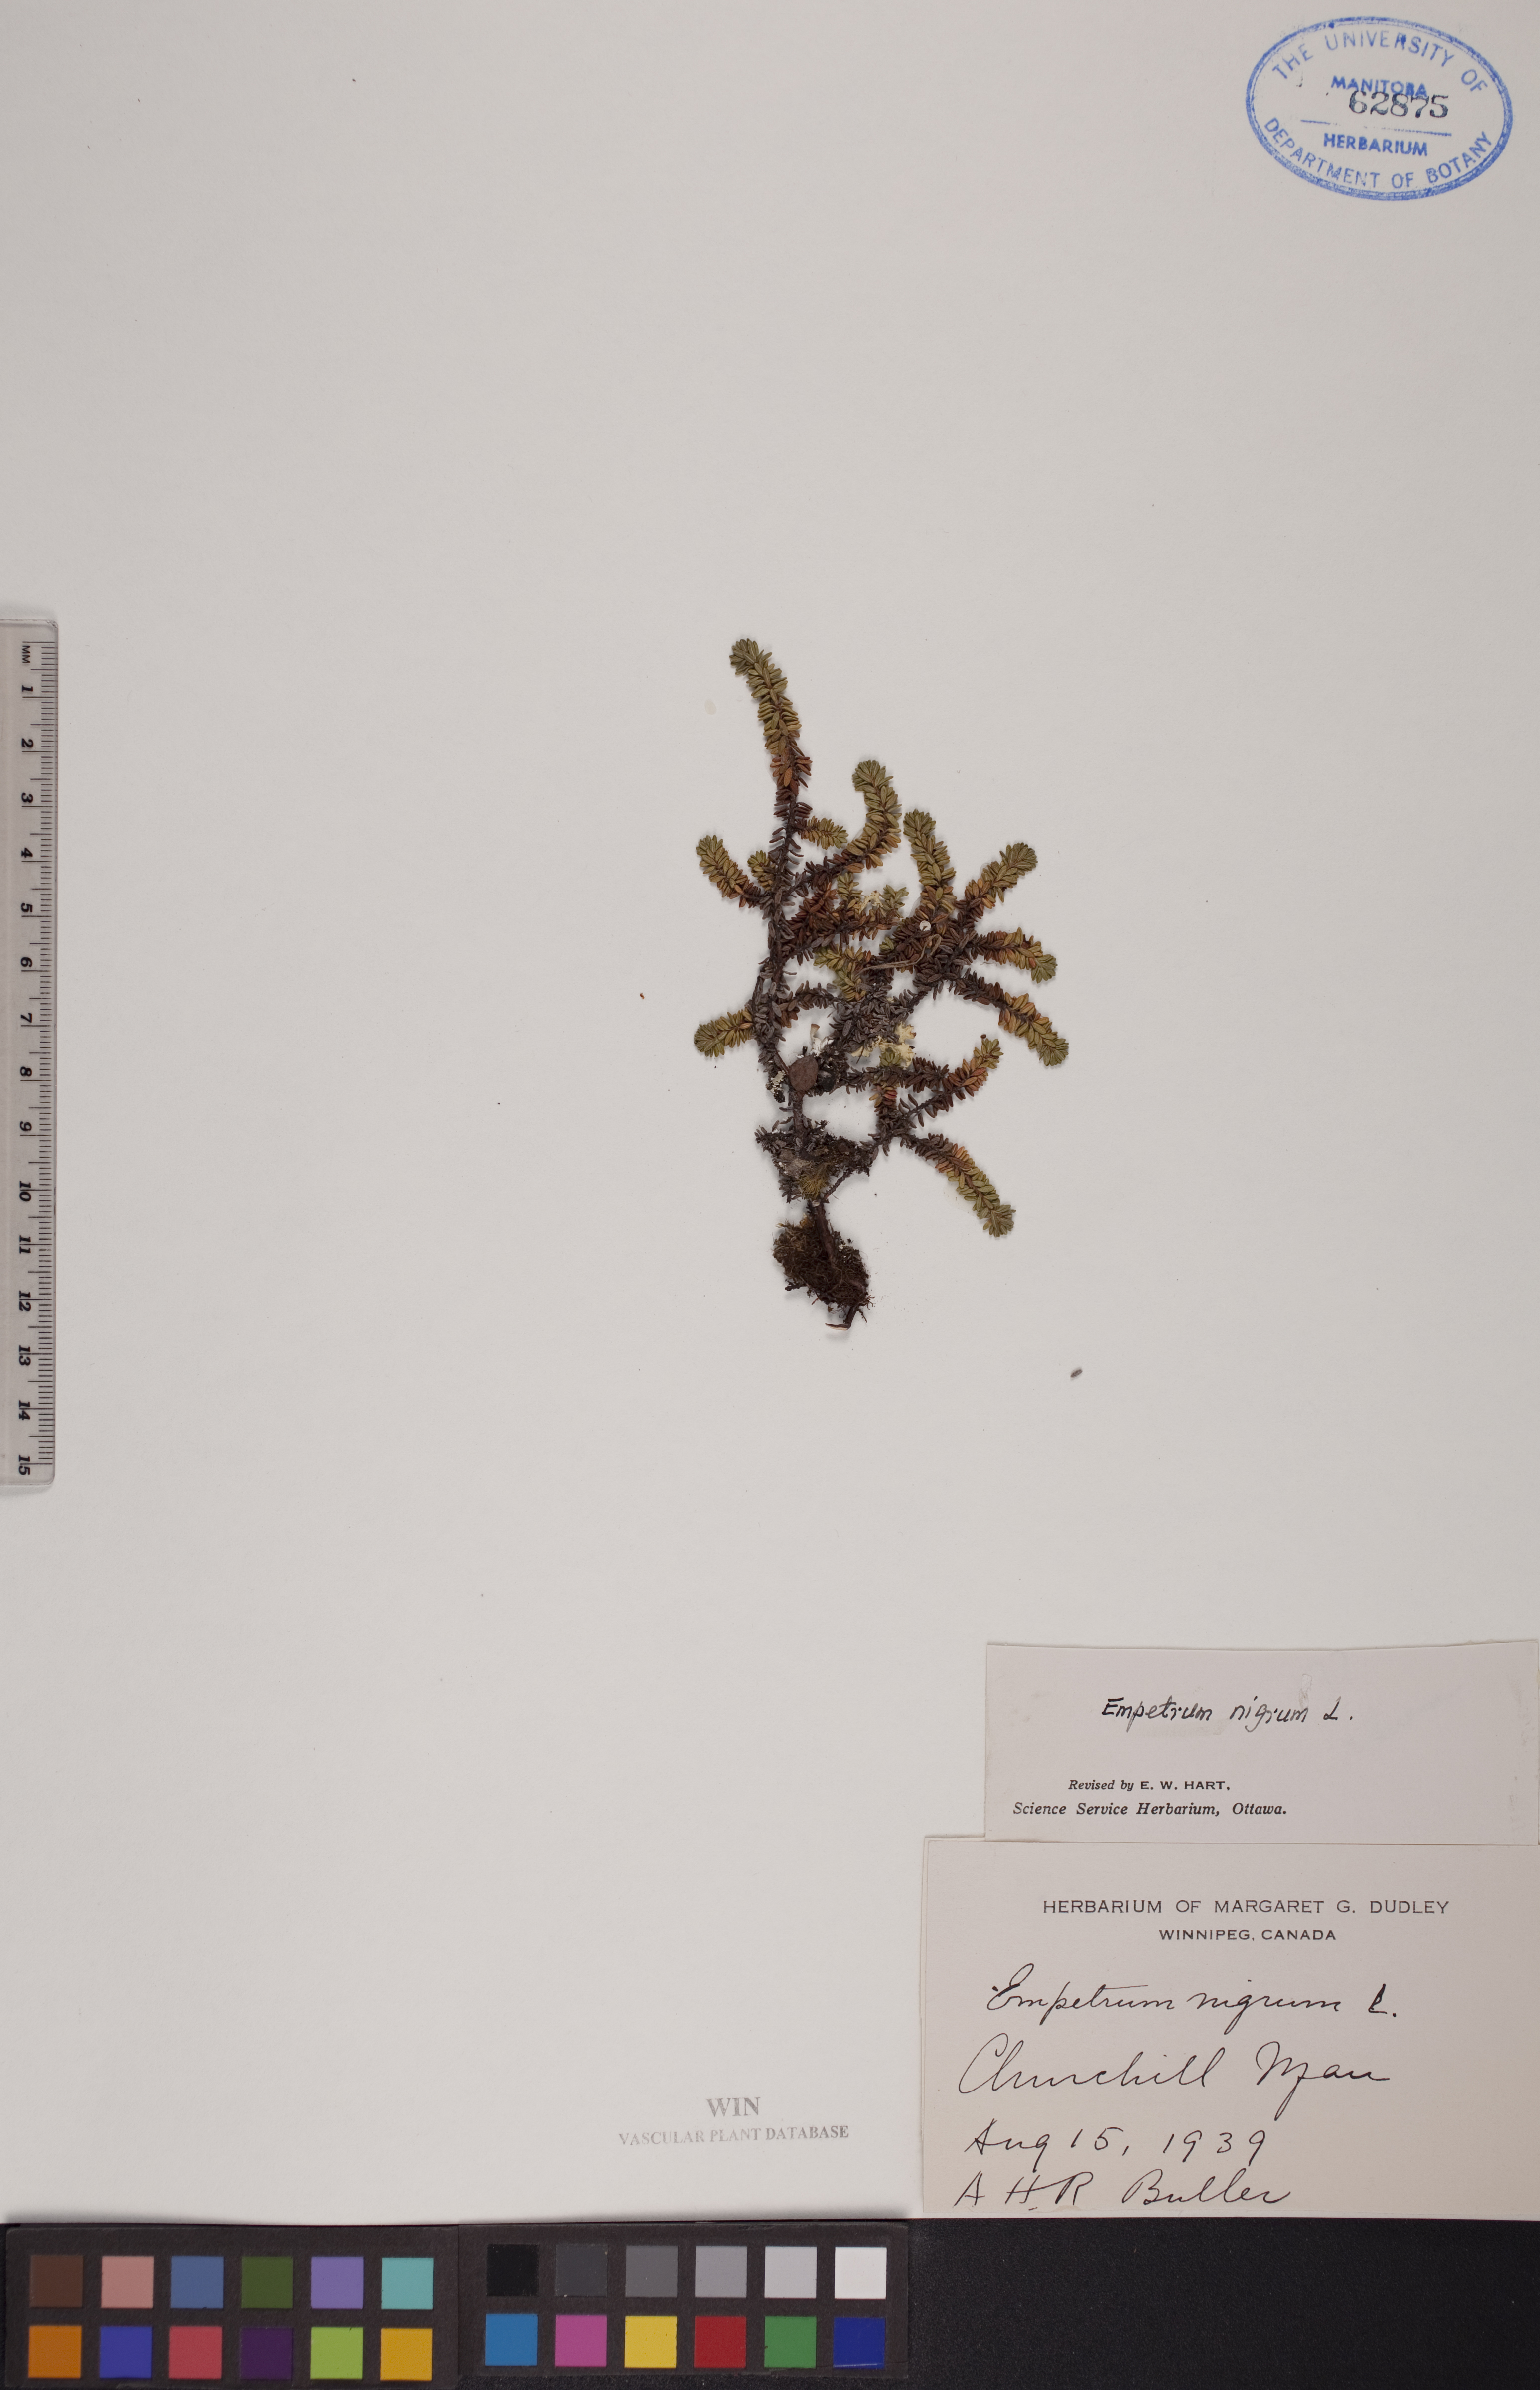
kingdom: Plantae
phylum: Tracheophyta
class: Magnoliopsida
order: Ericales
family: Ericaceae
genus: Empetrum
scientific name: Empetrum nigrum
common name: Black crowberry
